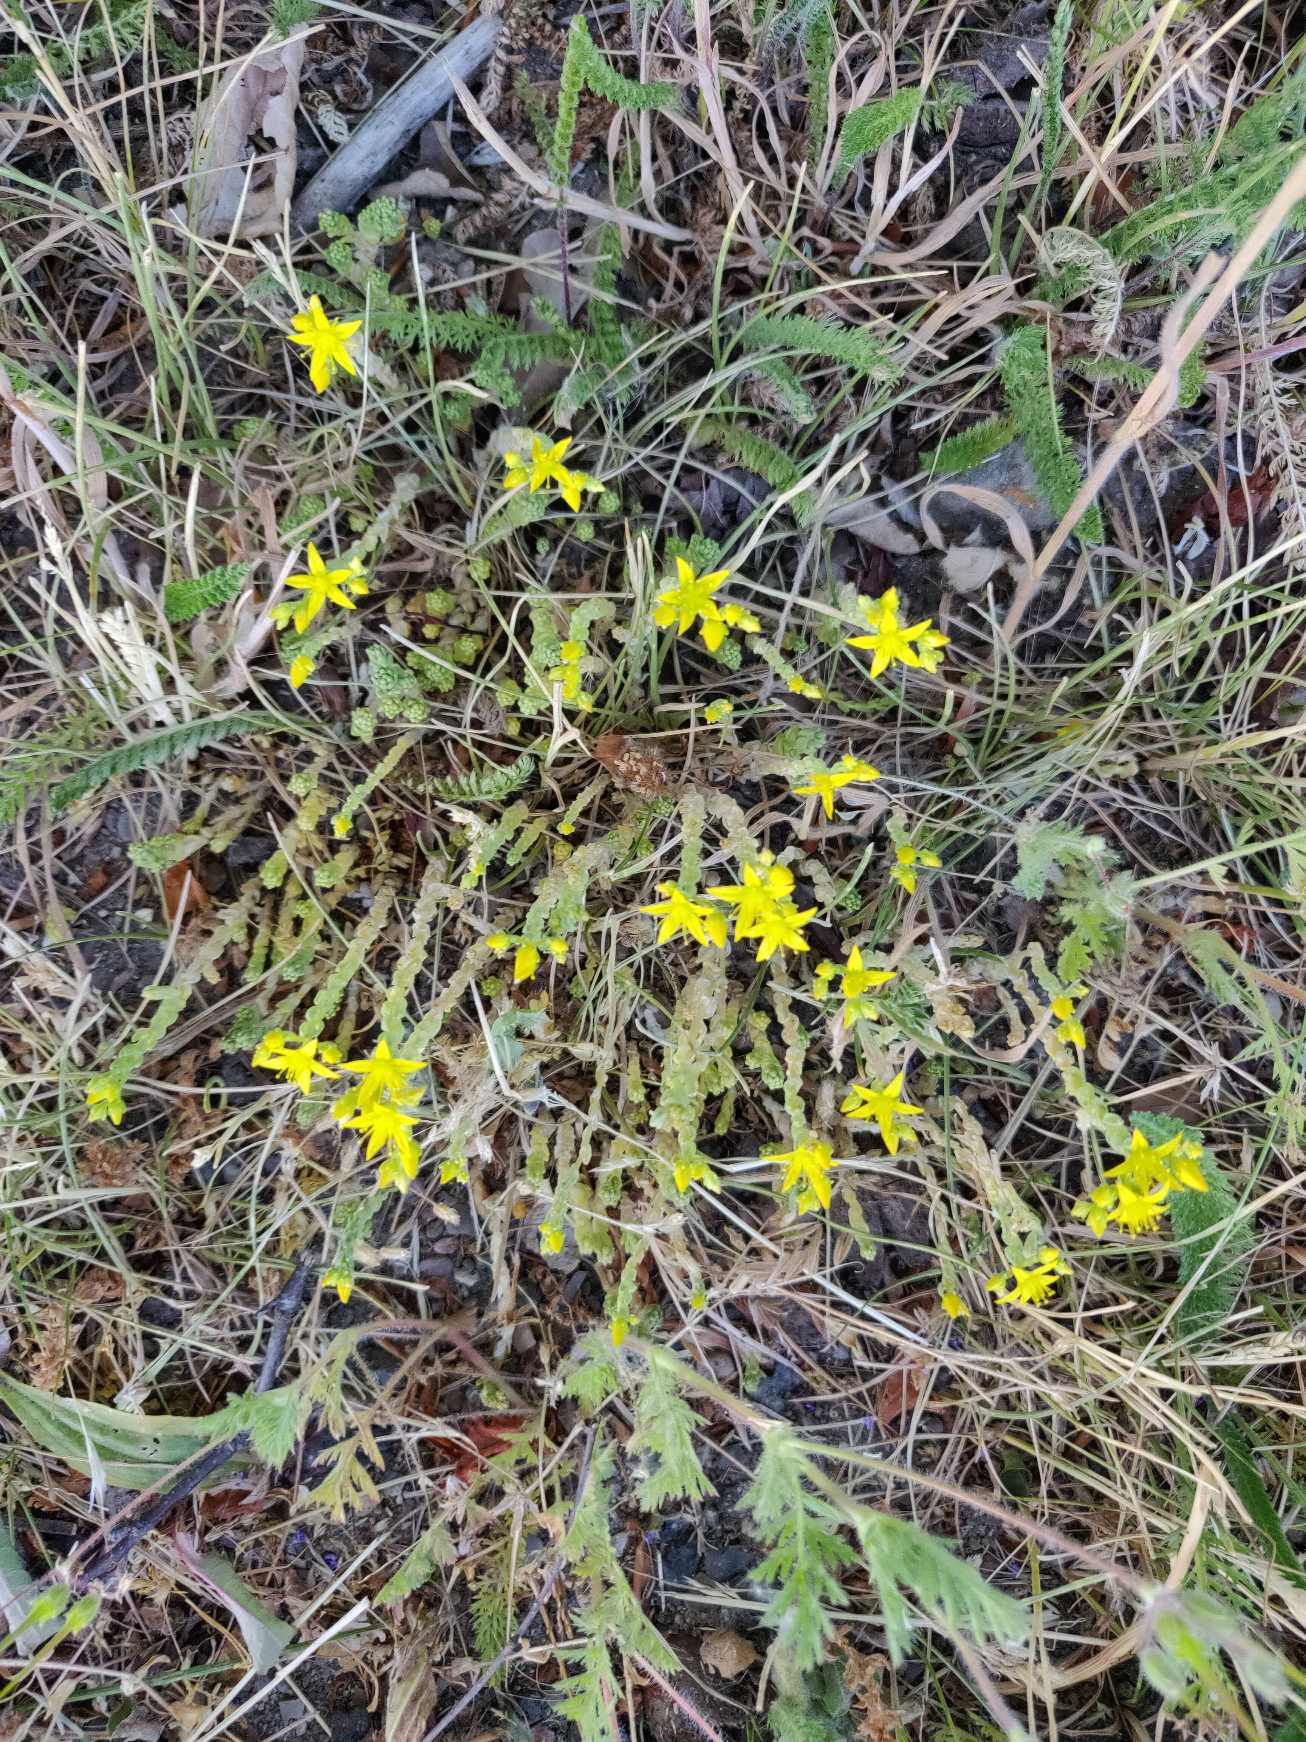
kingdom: Plantae
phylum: Tracheophyta
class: Magnoliopsida
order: Saxifragales
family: Crassulaceae
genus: Sedum
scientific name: Sedum acre
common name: Bidende stenurt
